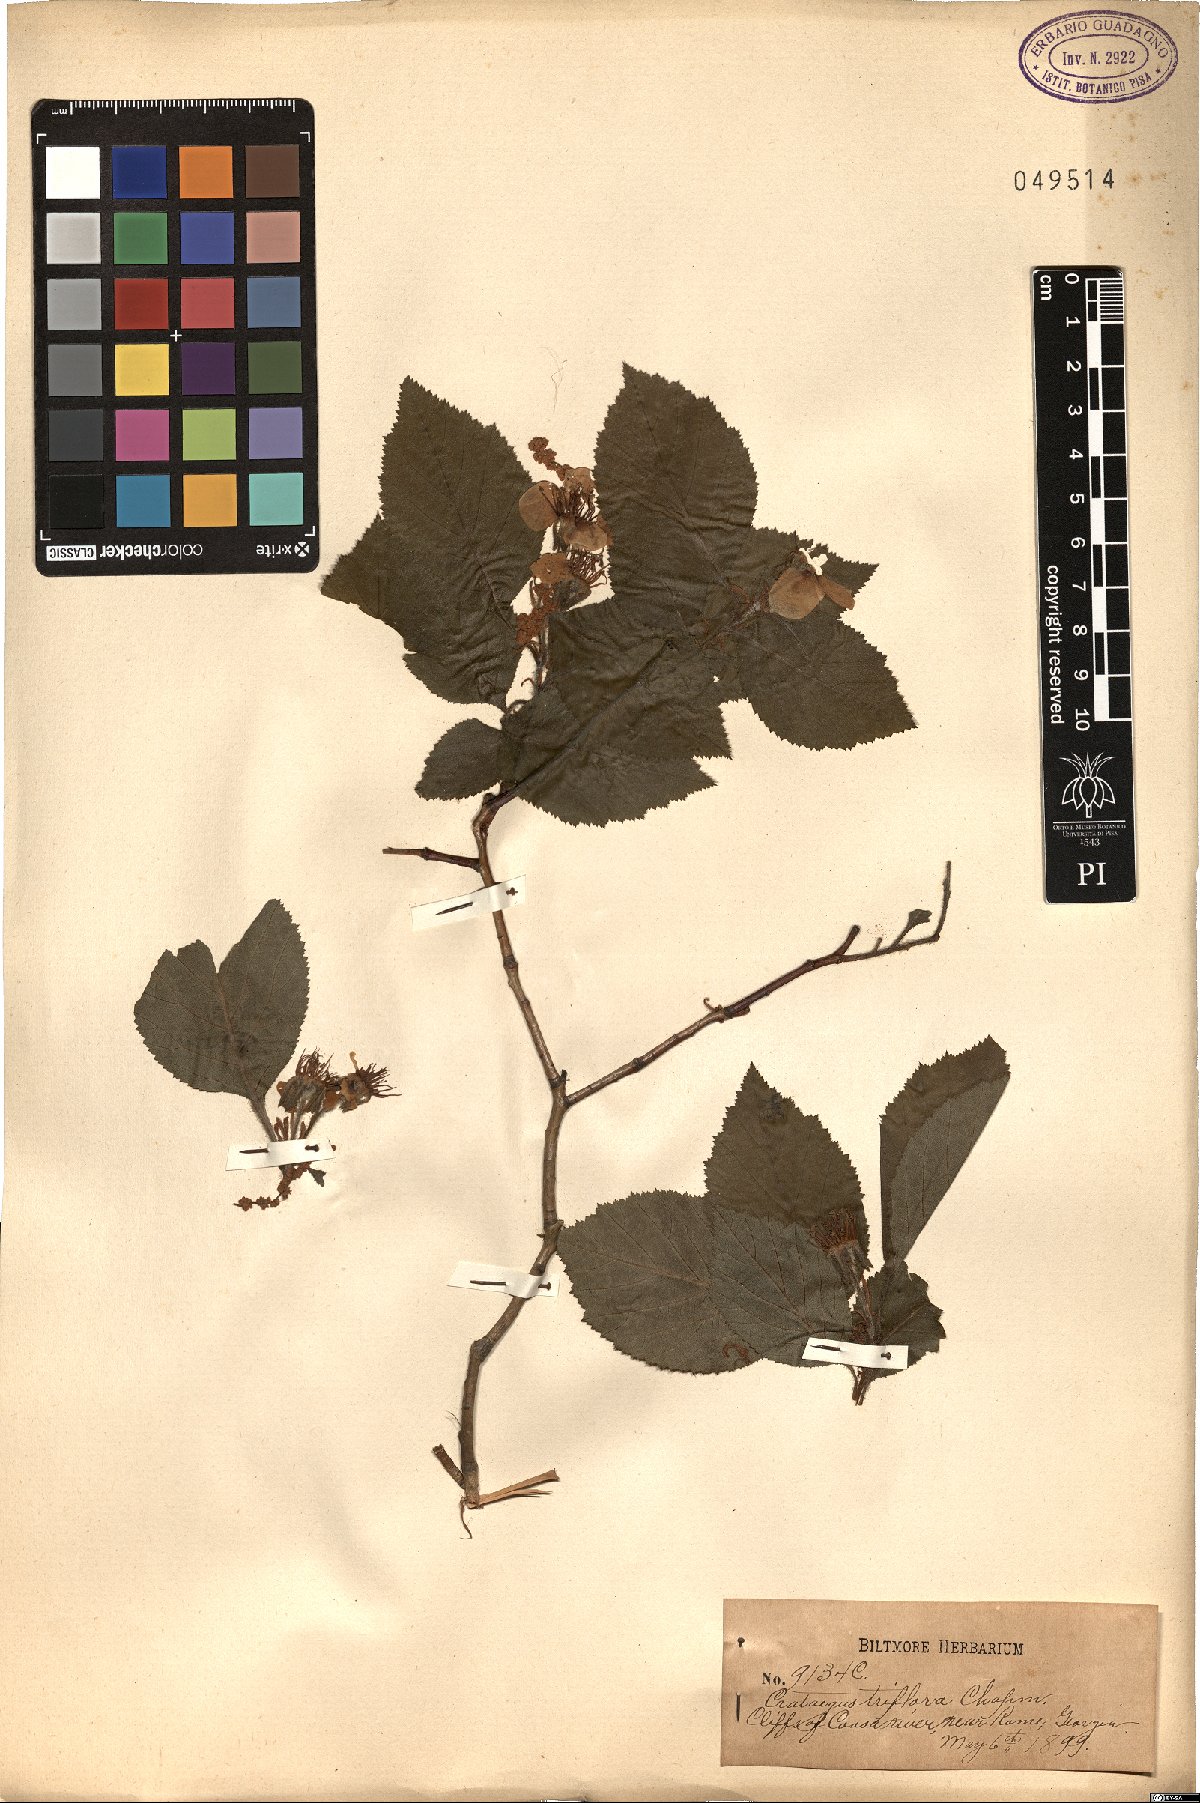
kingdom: Plantae
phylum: Tracheophyta
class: Magnoliopsida
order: Rosales
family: Rosaceae
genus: Crataegus
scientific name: Crataegus triflora
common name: Three-flower hawthorn
